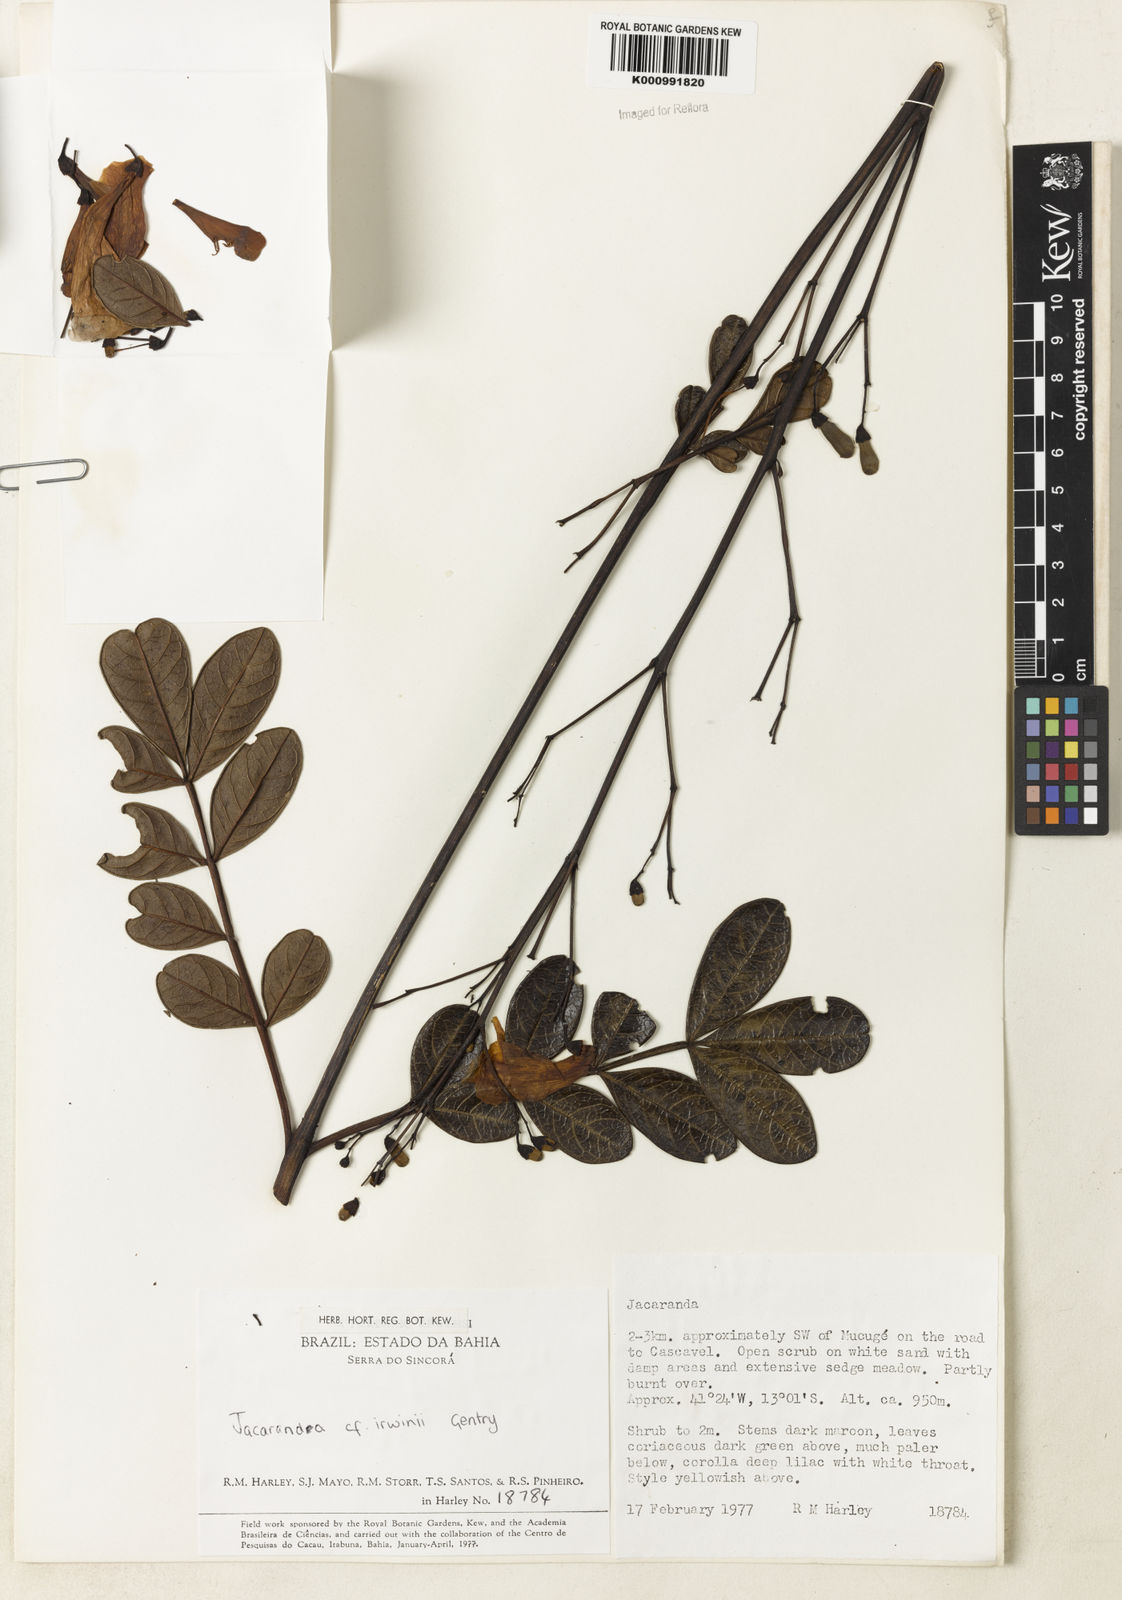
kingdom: Plantae
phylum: Tracheophyta
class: Magnoliopsida
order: Lamiales
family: Bignoniaceae
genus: Jacaranda
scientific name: Jacaranda irwinii
